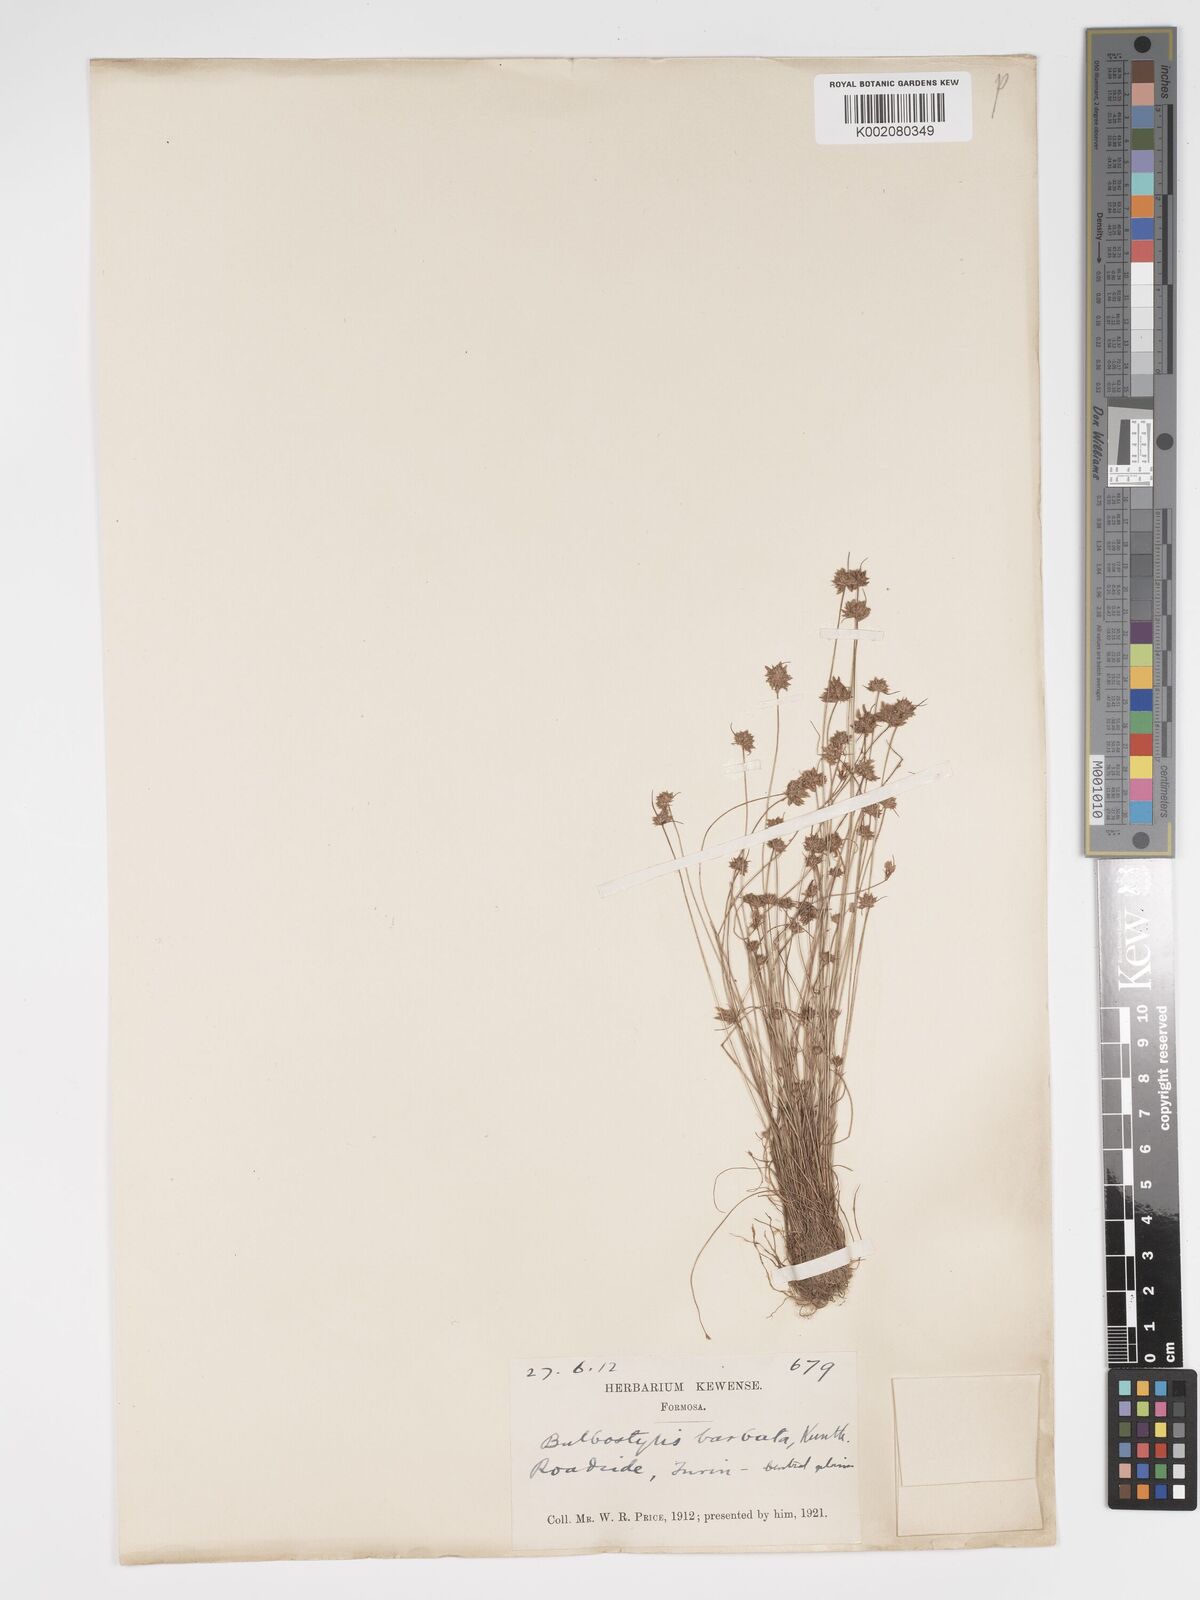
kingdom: Plantae
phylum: Tracheophyta
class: Liliopsida
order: Poales
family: Cyperaceae
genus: Bulbostylis
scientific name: Bulbostylis barbata
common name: Watergrass
